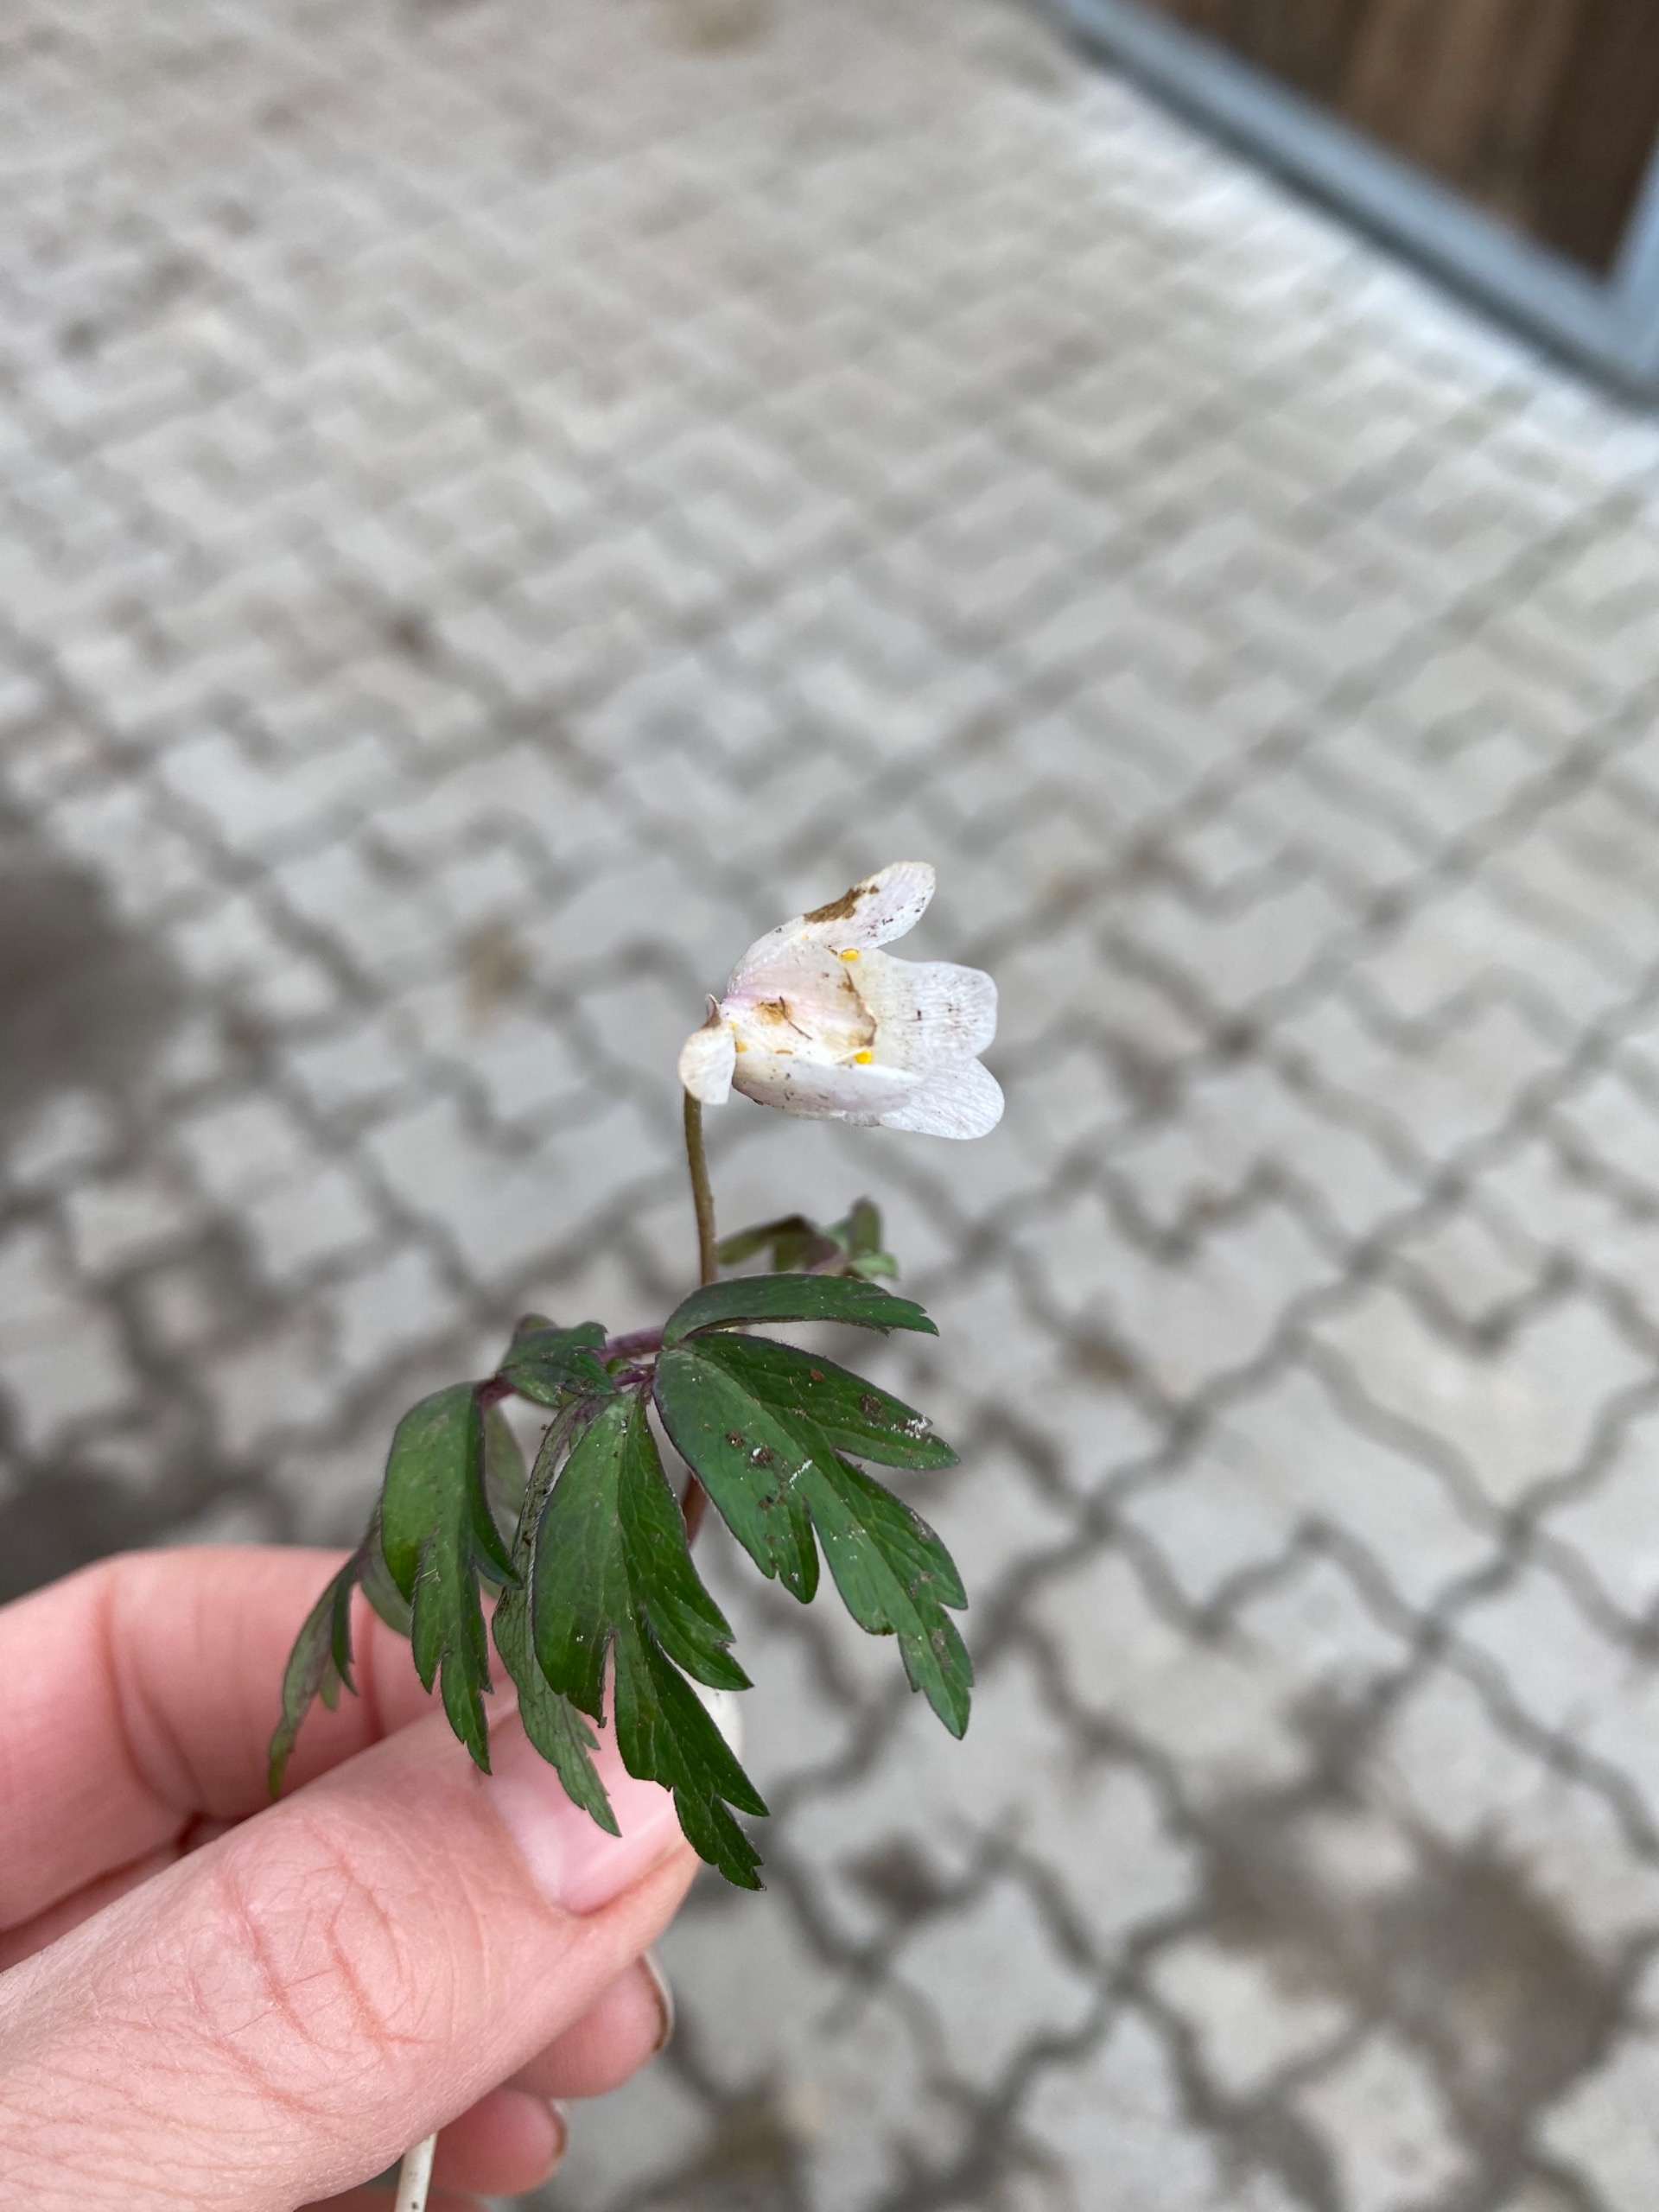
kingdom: Plantae
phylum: Tracheophyta
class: Magnoliopsida
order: Ranunculales
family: Ranunculaceae
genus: Anemone
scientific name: Anemone nemorosa
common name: Hvid anemone
